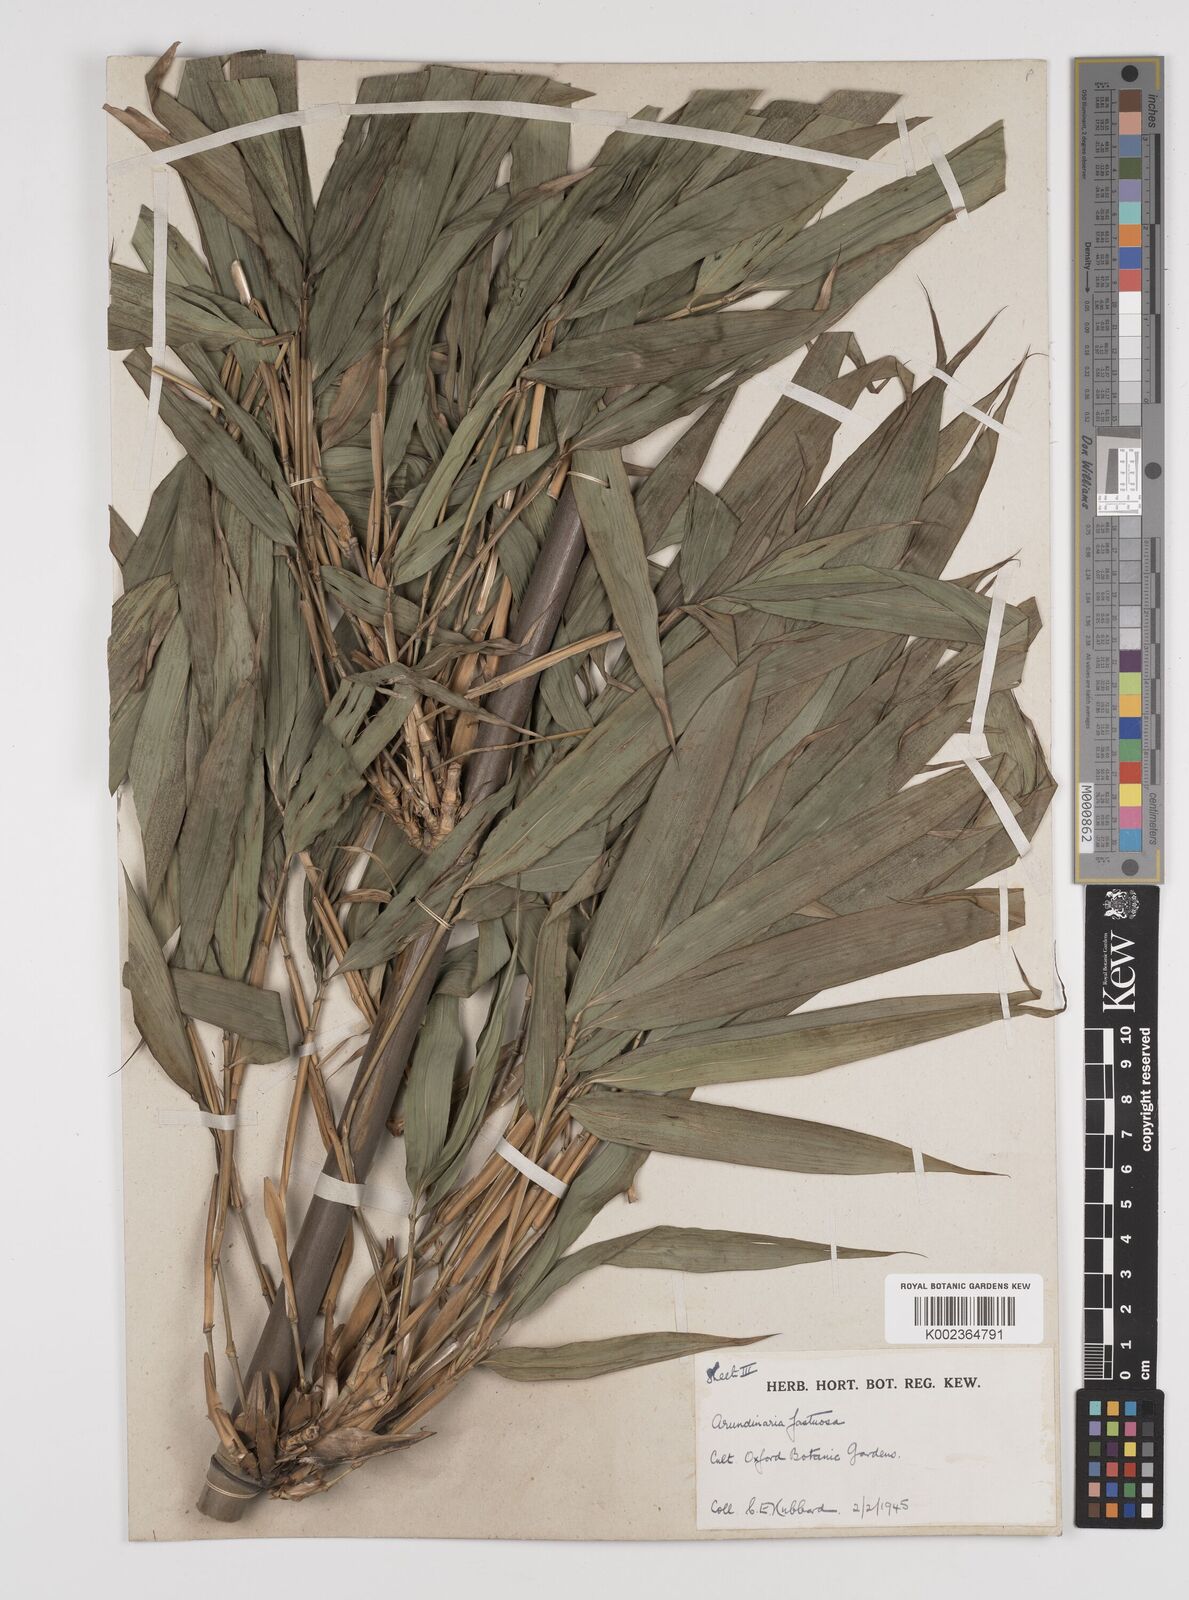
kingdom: Plantae
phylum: Tracheophyta
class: Liliopsida
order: Poales
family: Poaceae
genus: Semiarundinaria
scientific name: Semiarundinaria
